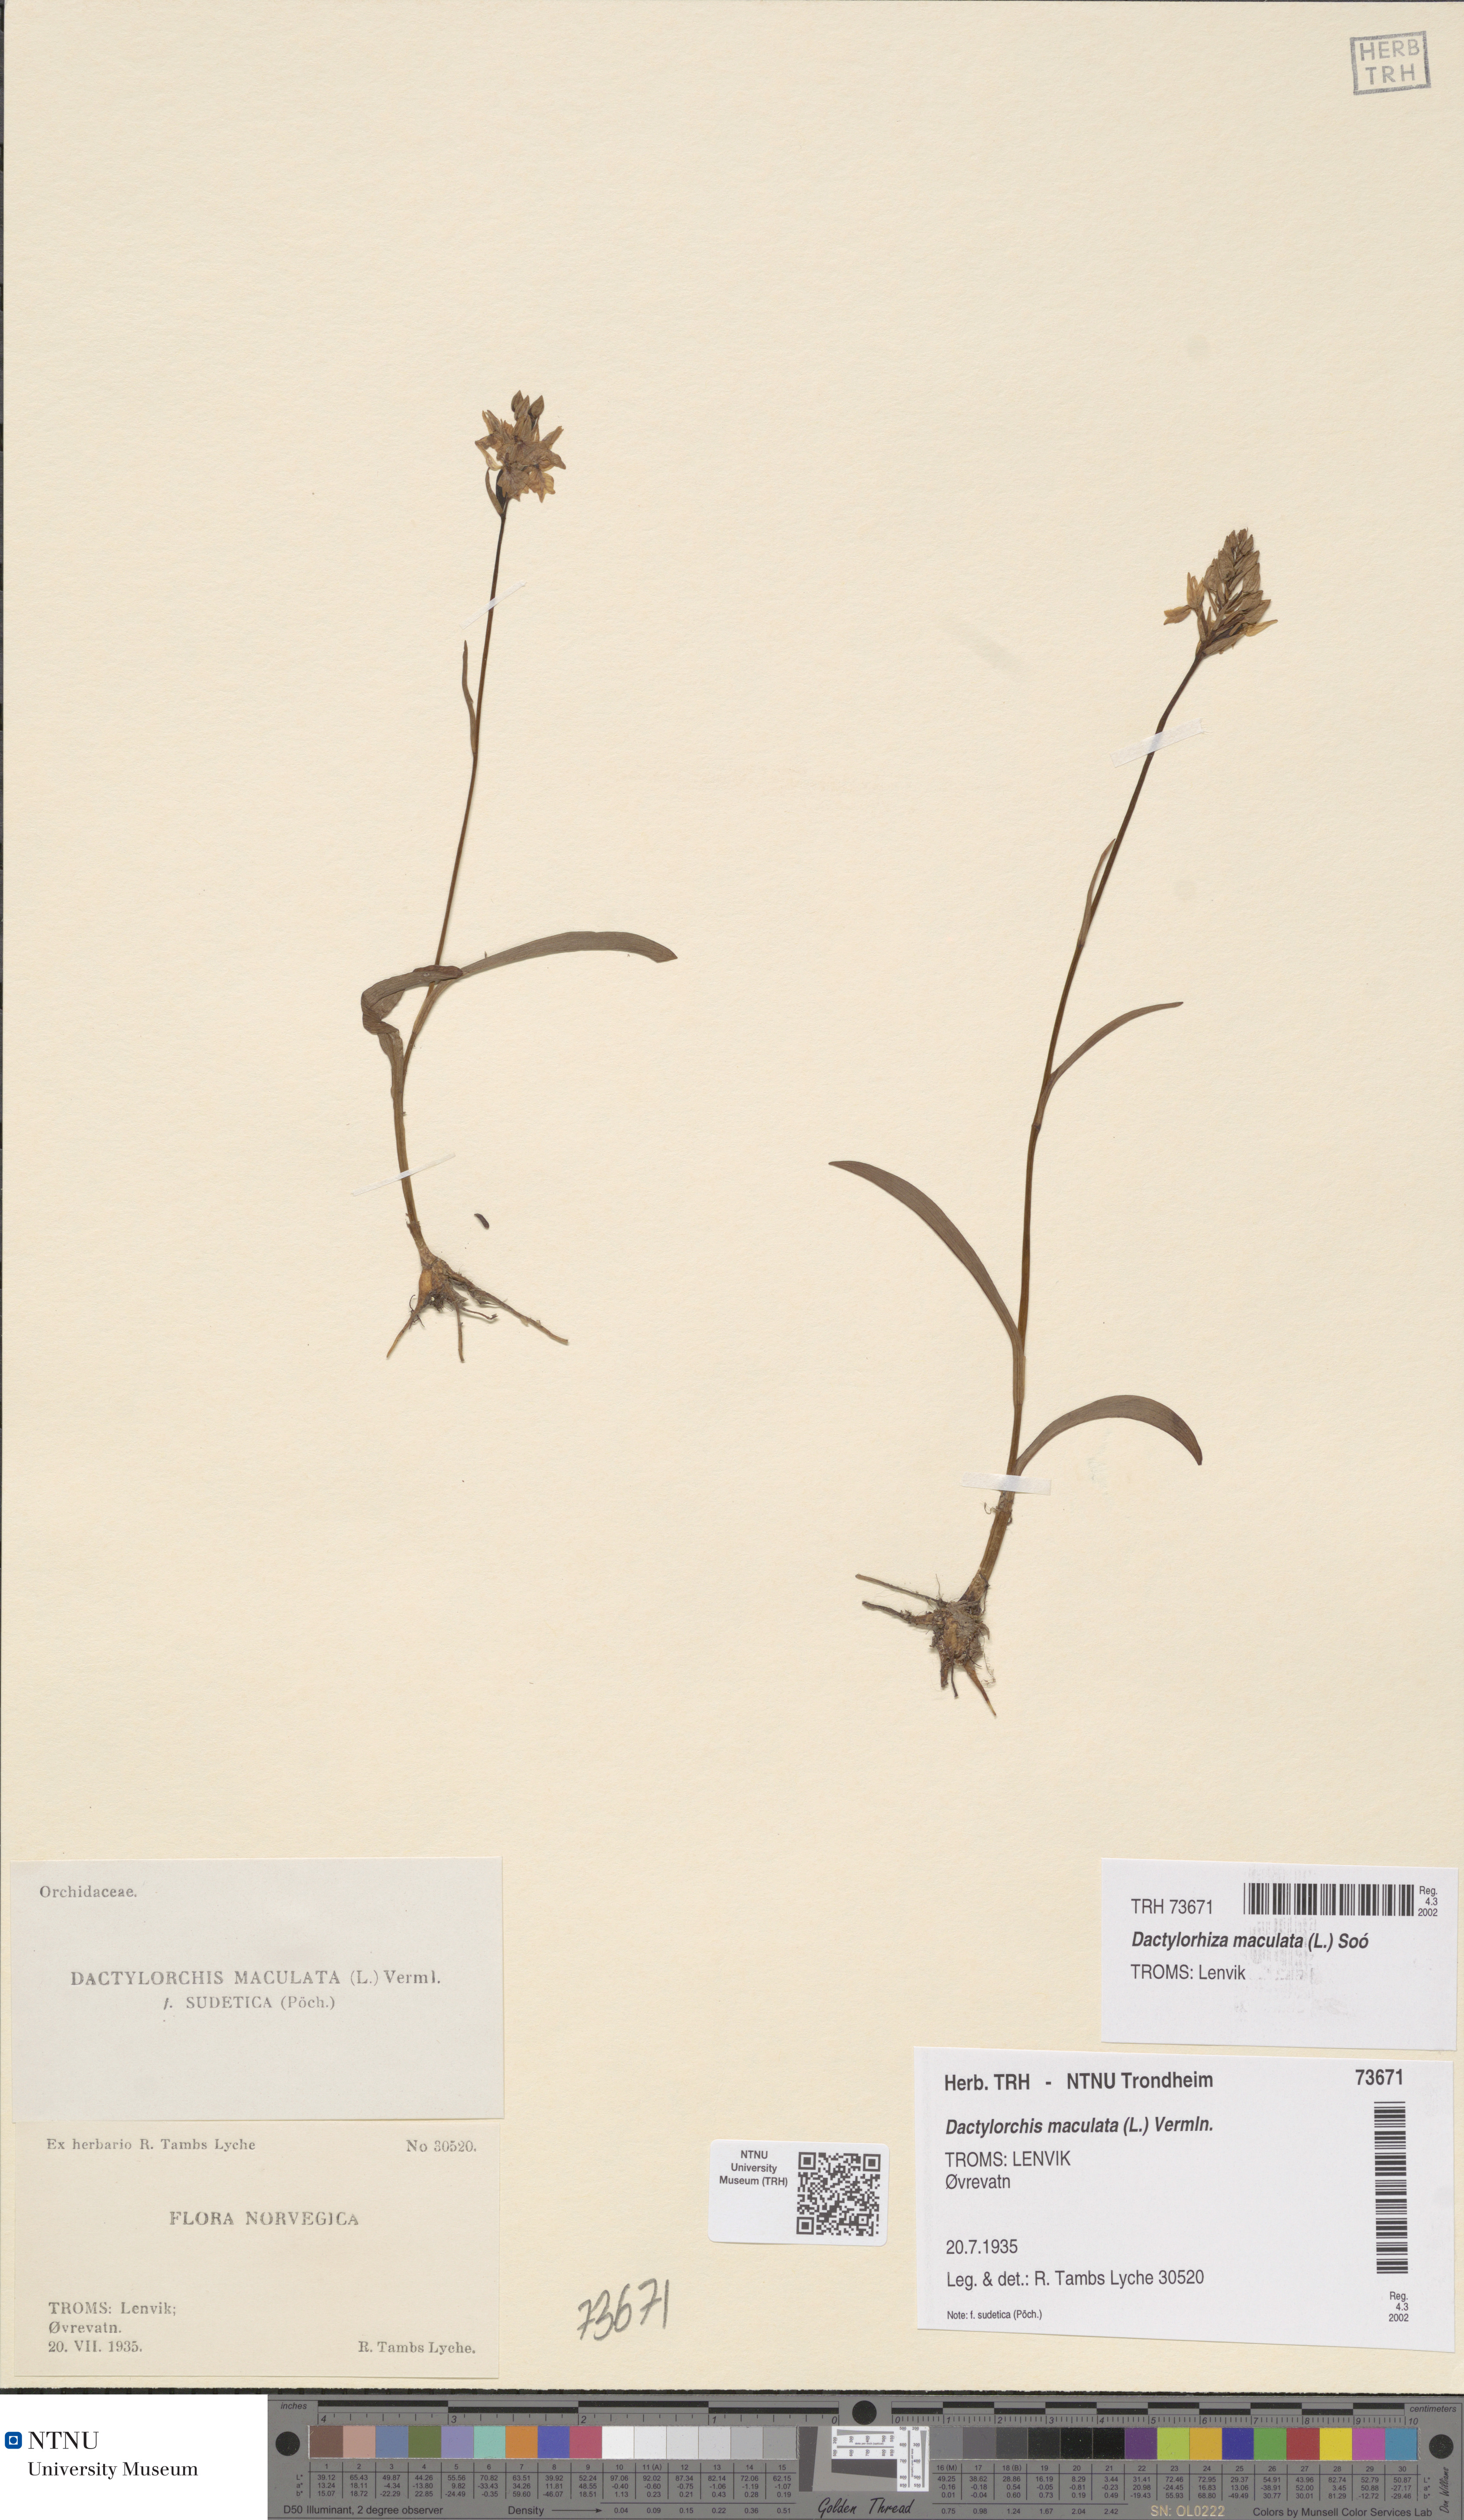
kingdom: Plantae
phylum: Tracheophyta
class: Liliopsida
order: Asparagales
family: Orchidaceae
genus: Dactylorhiza
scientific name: Dactylorhiza maculata
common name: Heath spotted-orchid
